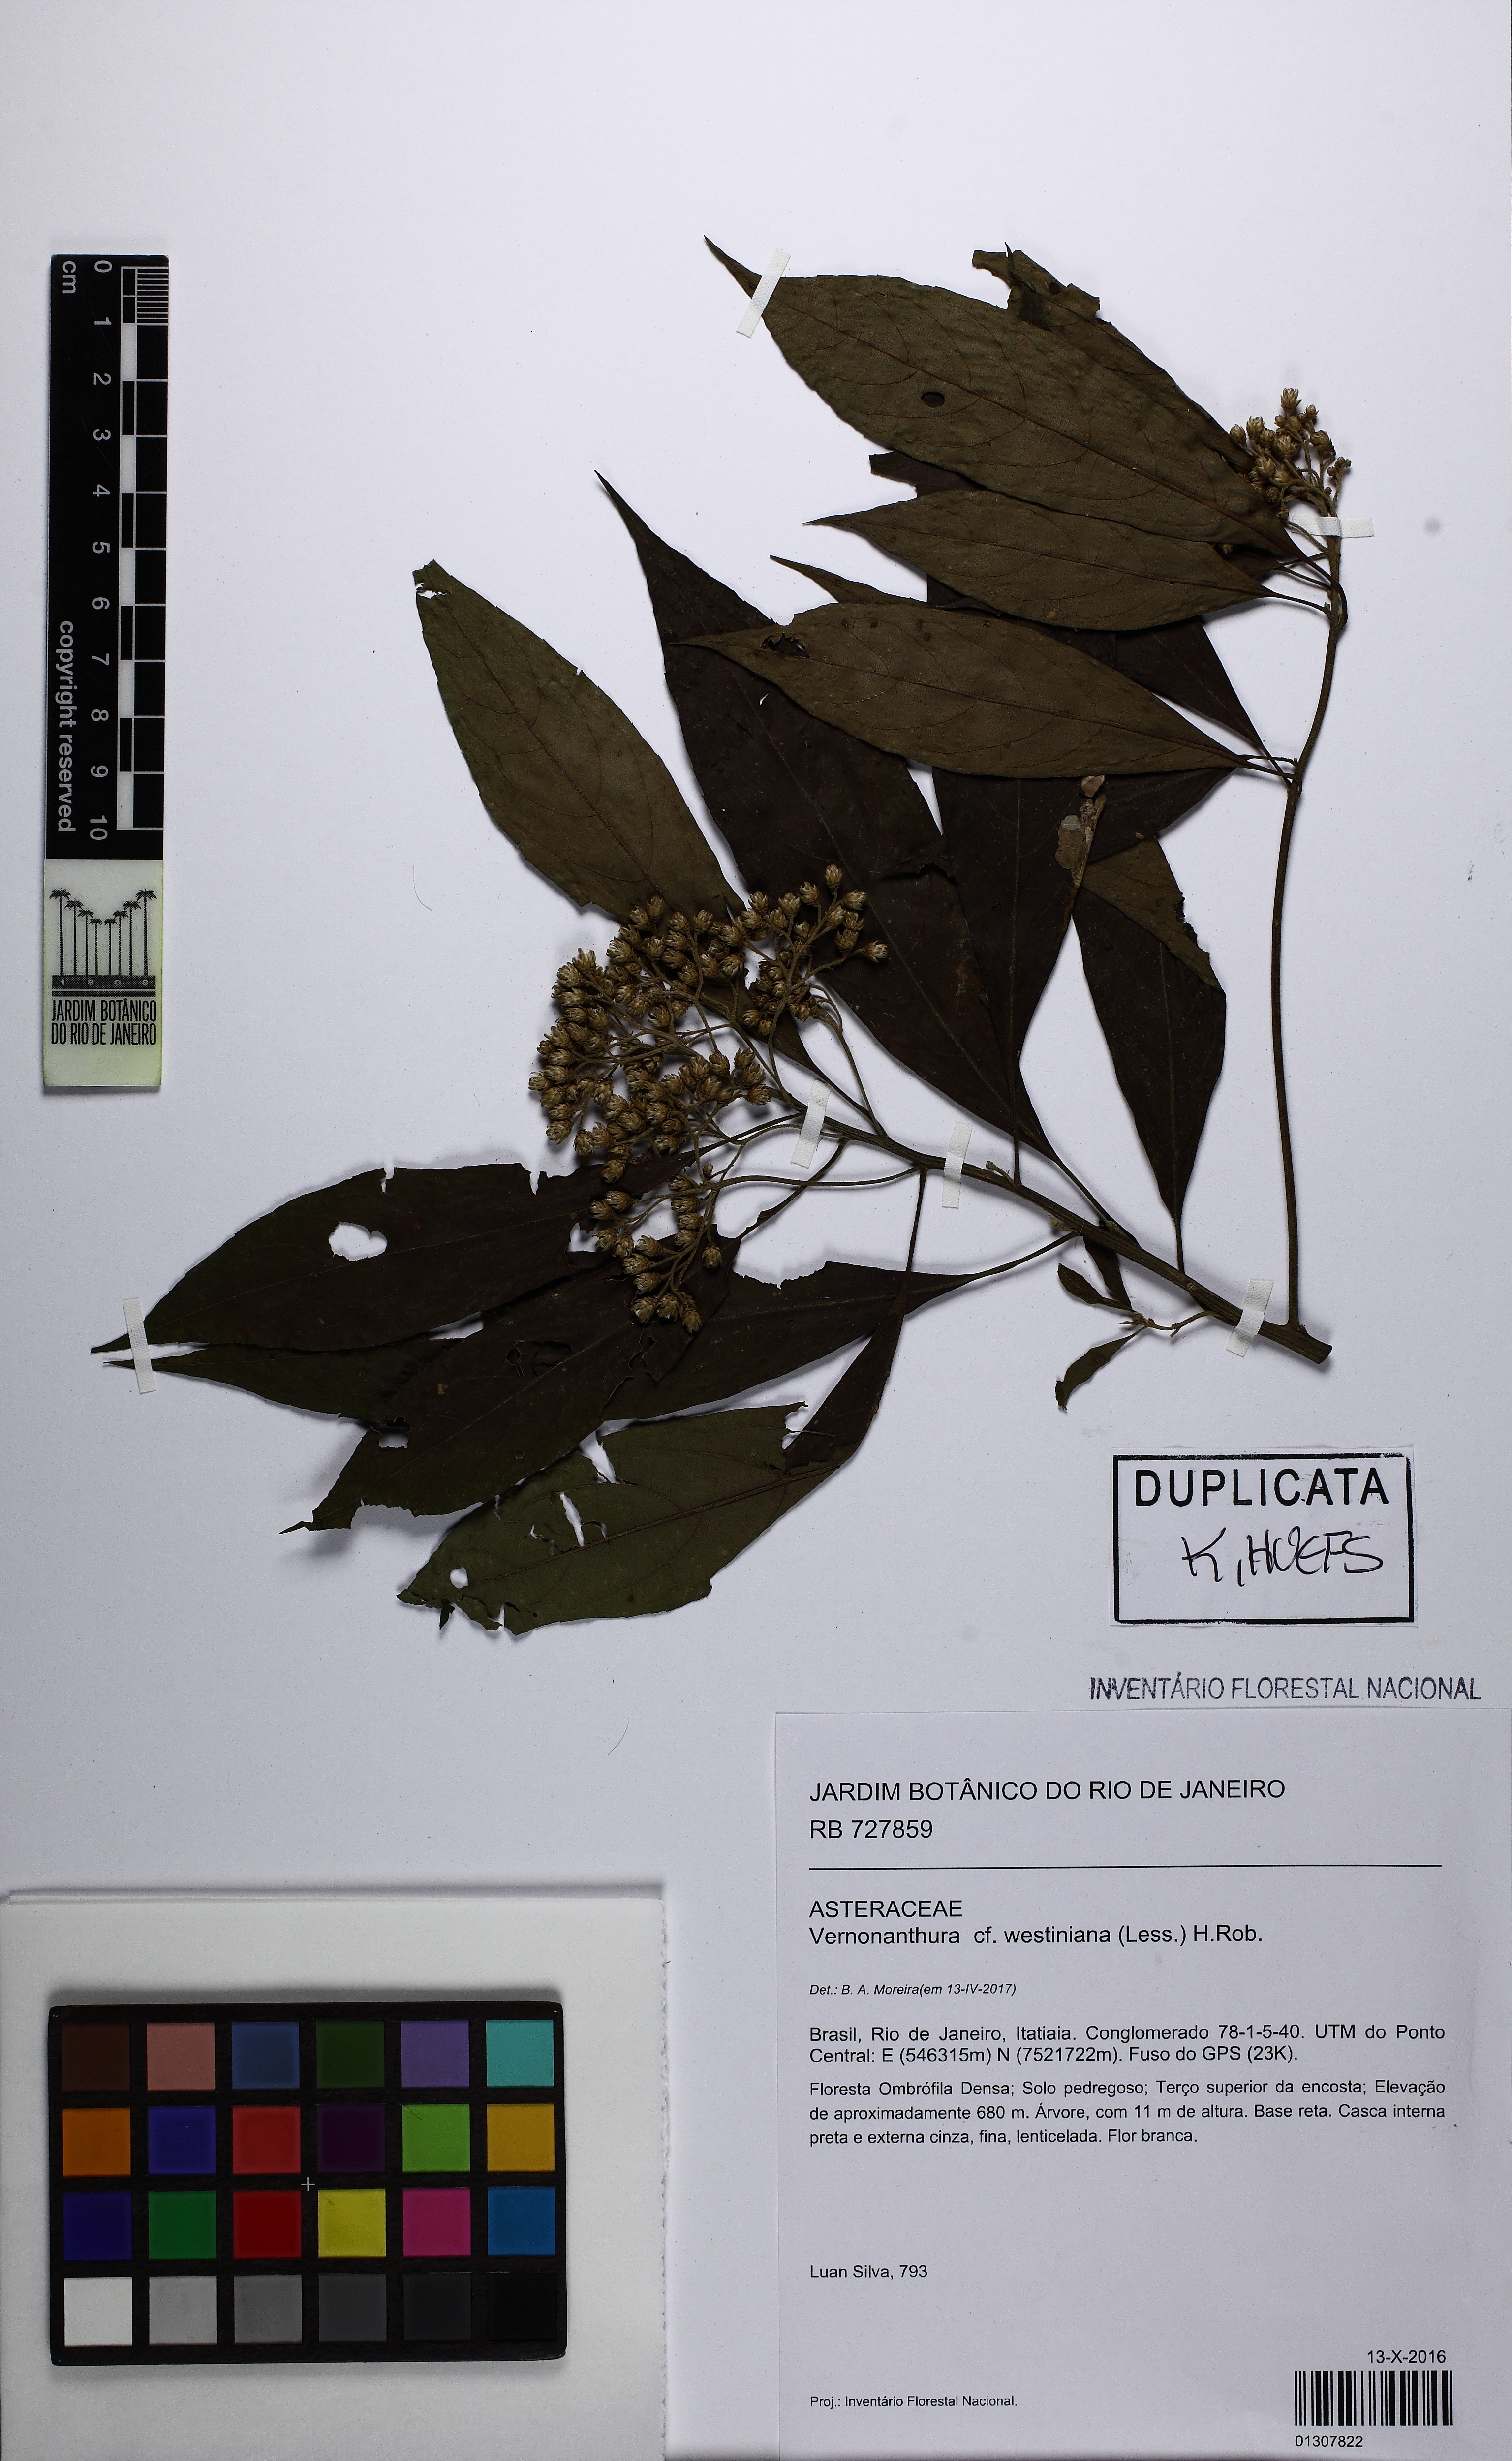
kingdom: Plantae
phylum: Tracheophyta
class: Magnoliopsida
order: Asterales
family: Asteraceae
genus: Vernonanthura
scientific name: Vernonanthura westiniana
